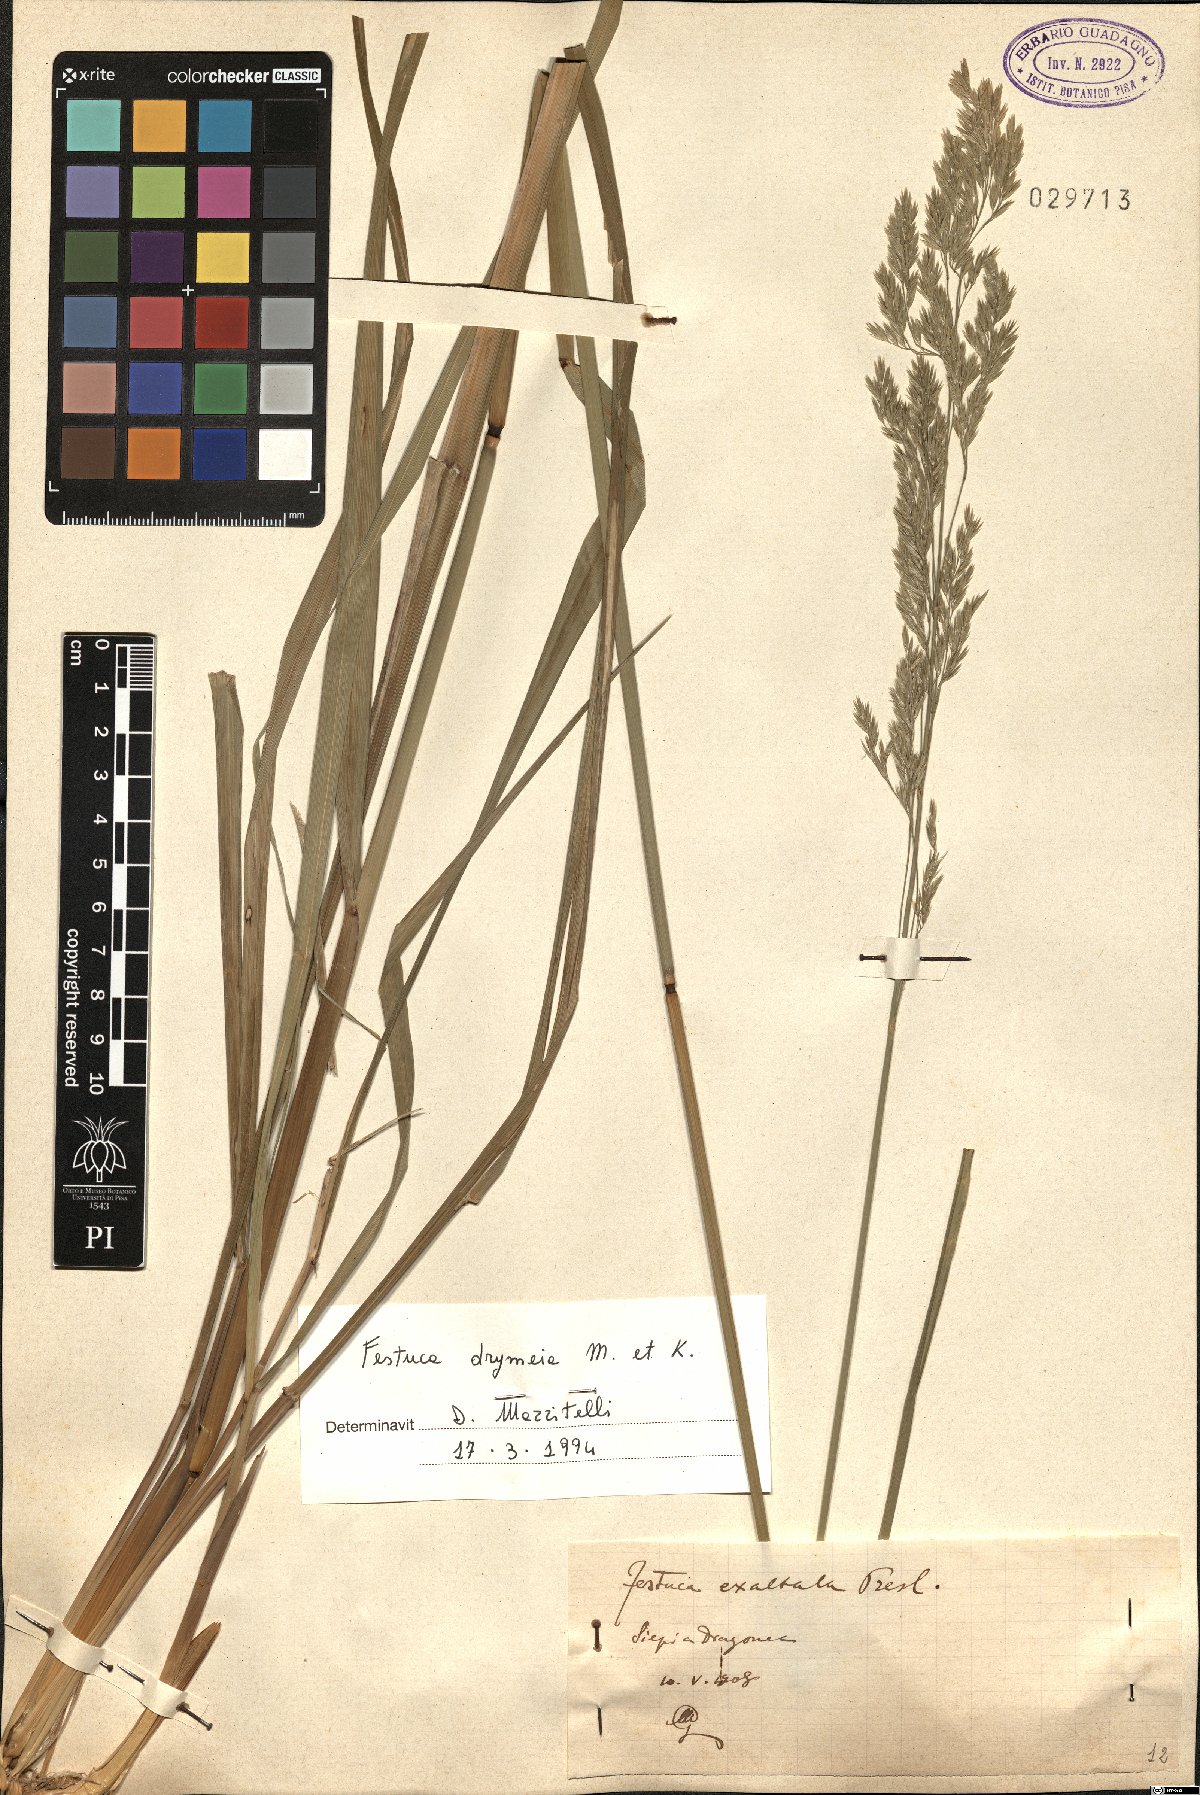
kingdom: Plantae
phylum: Tracheophyta
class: Liliopsida
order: Poales
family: Poaceae
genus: Festuca
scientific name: Festuca drymeja
